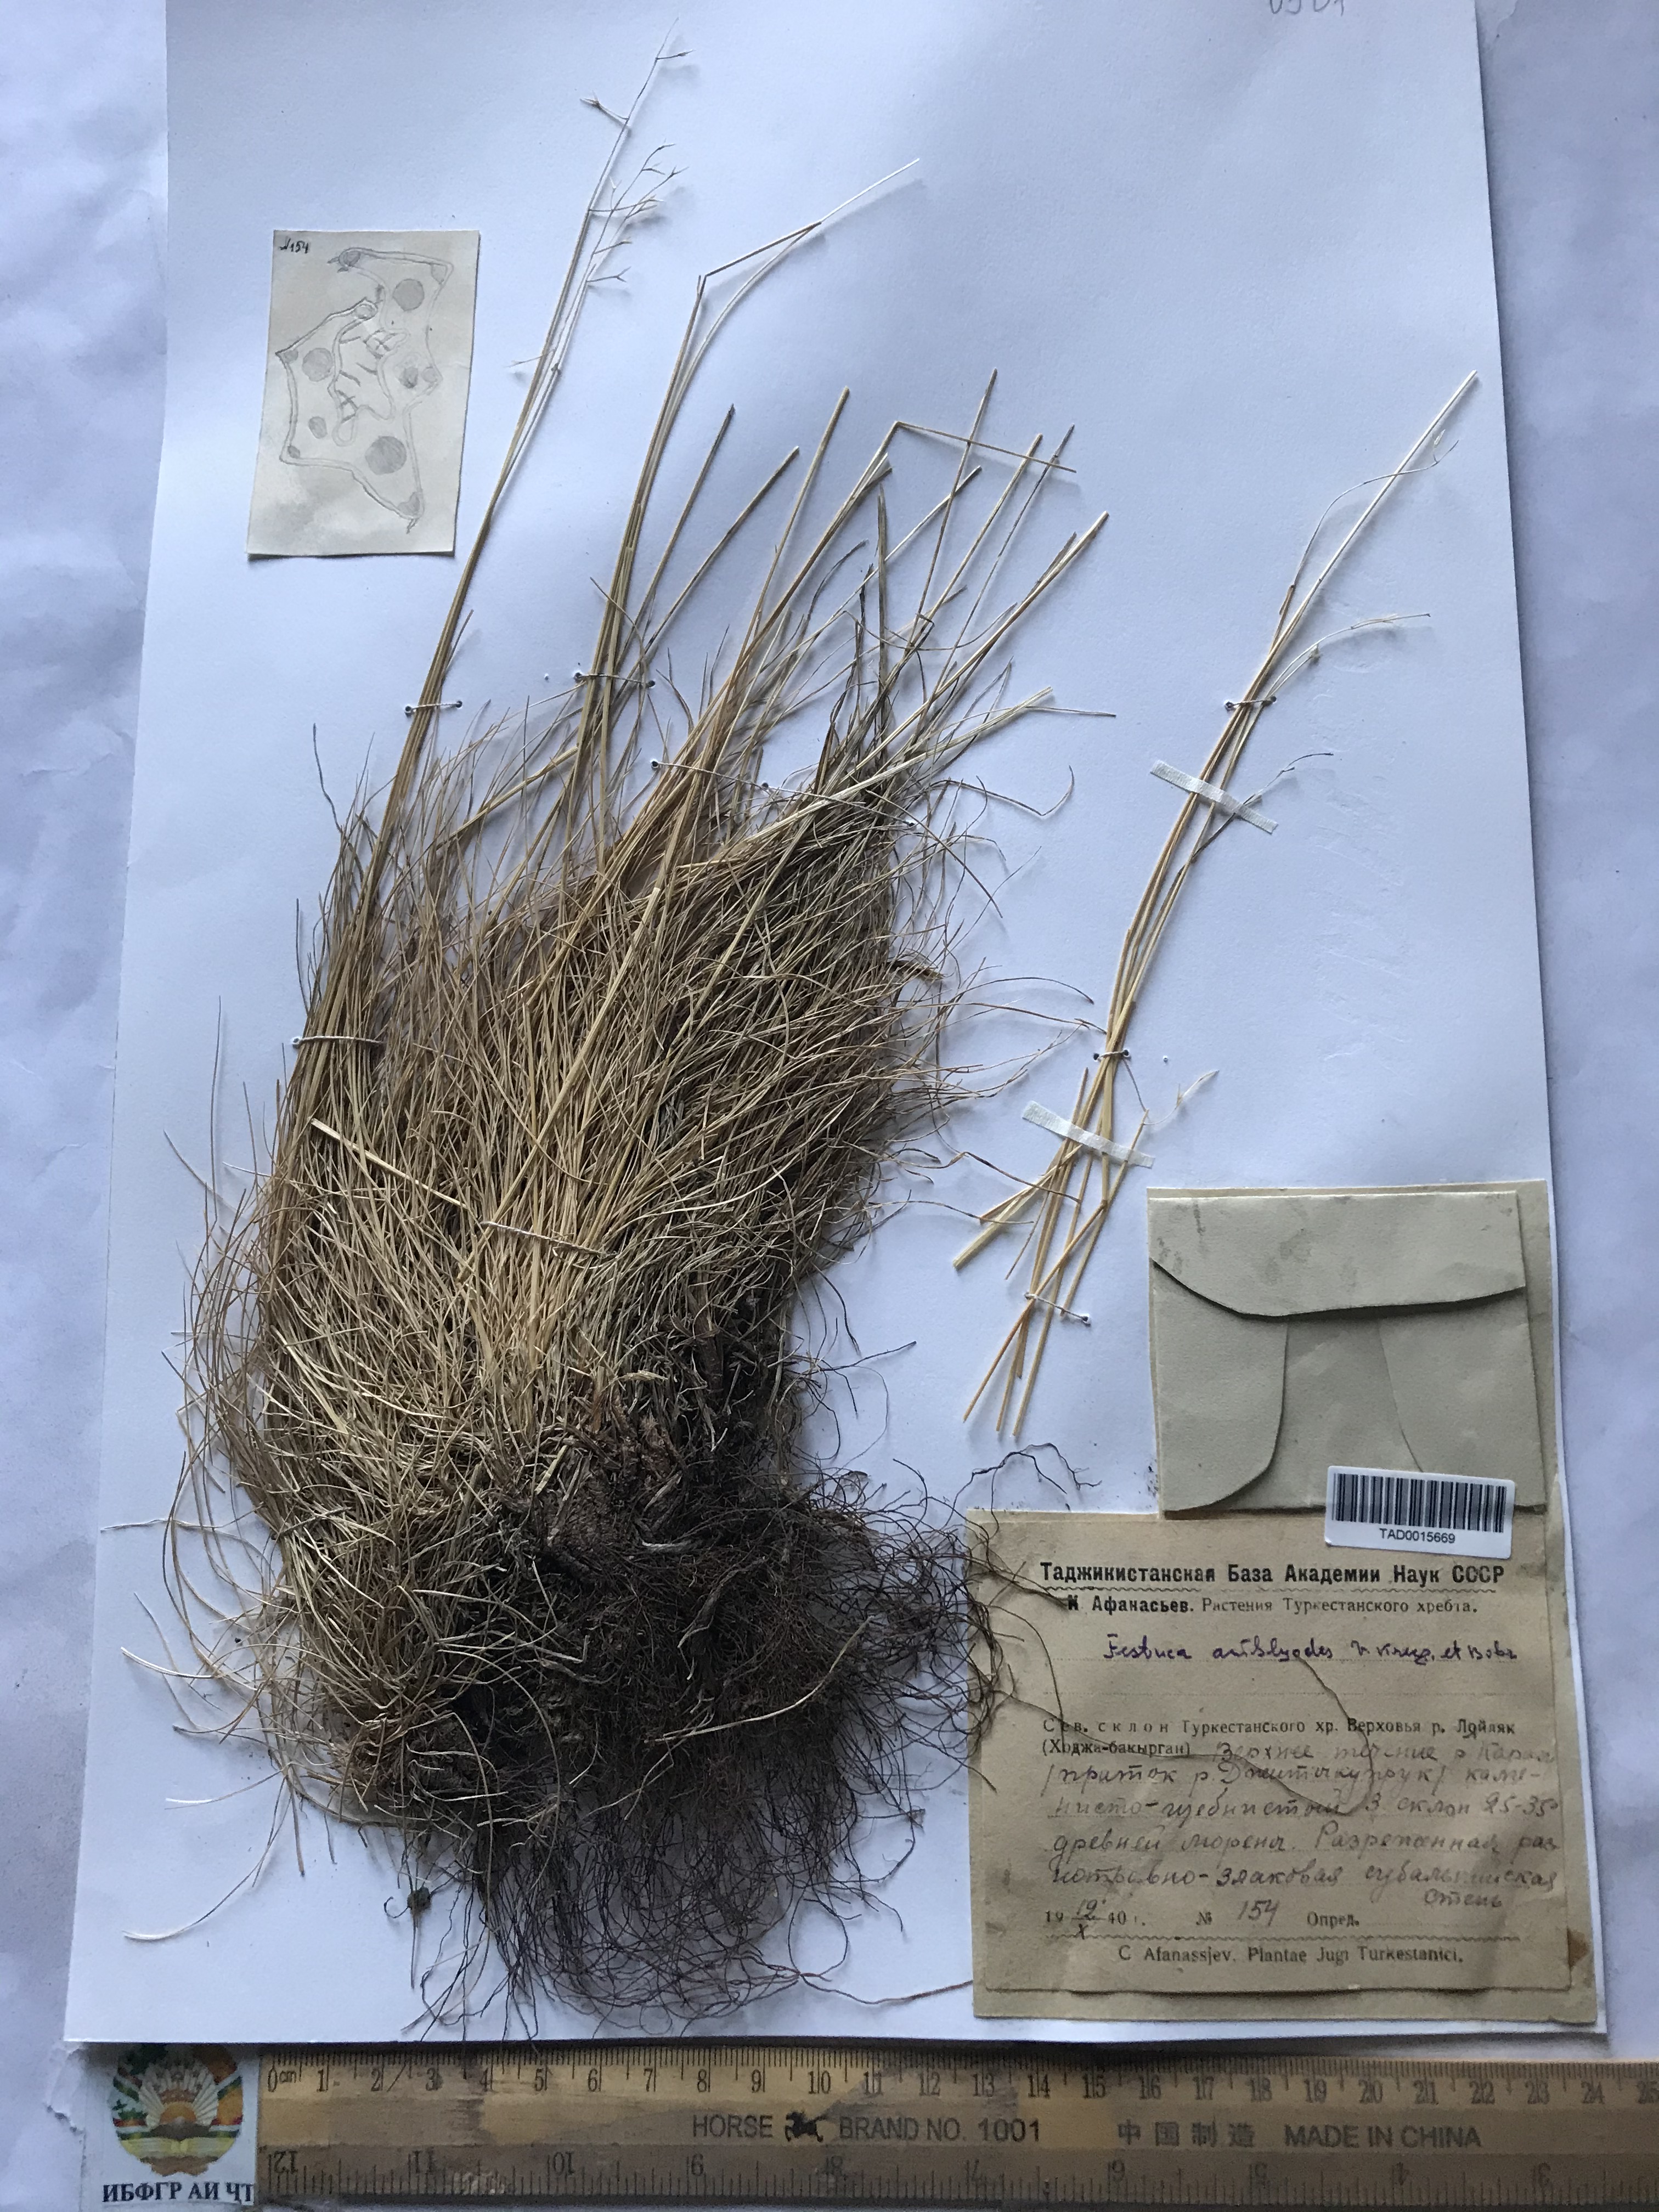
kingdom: Plantae
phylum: Tracheophyta
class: Liliopsida
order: Poales
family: Poaceae
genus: Festuca
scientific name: Festuca amblyodes
